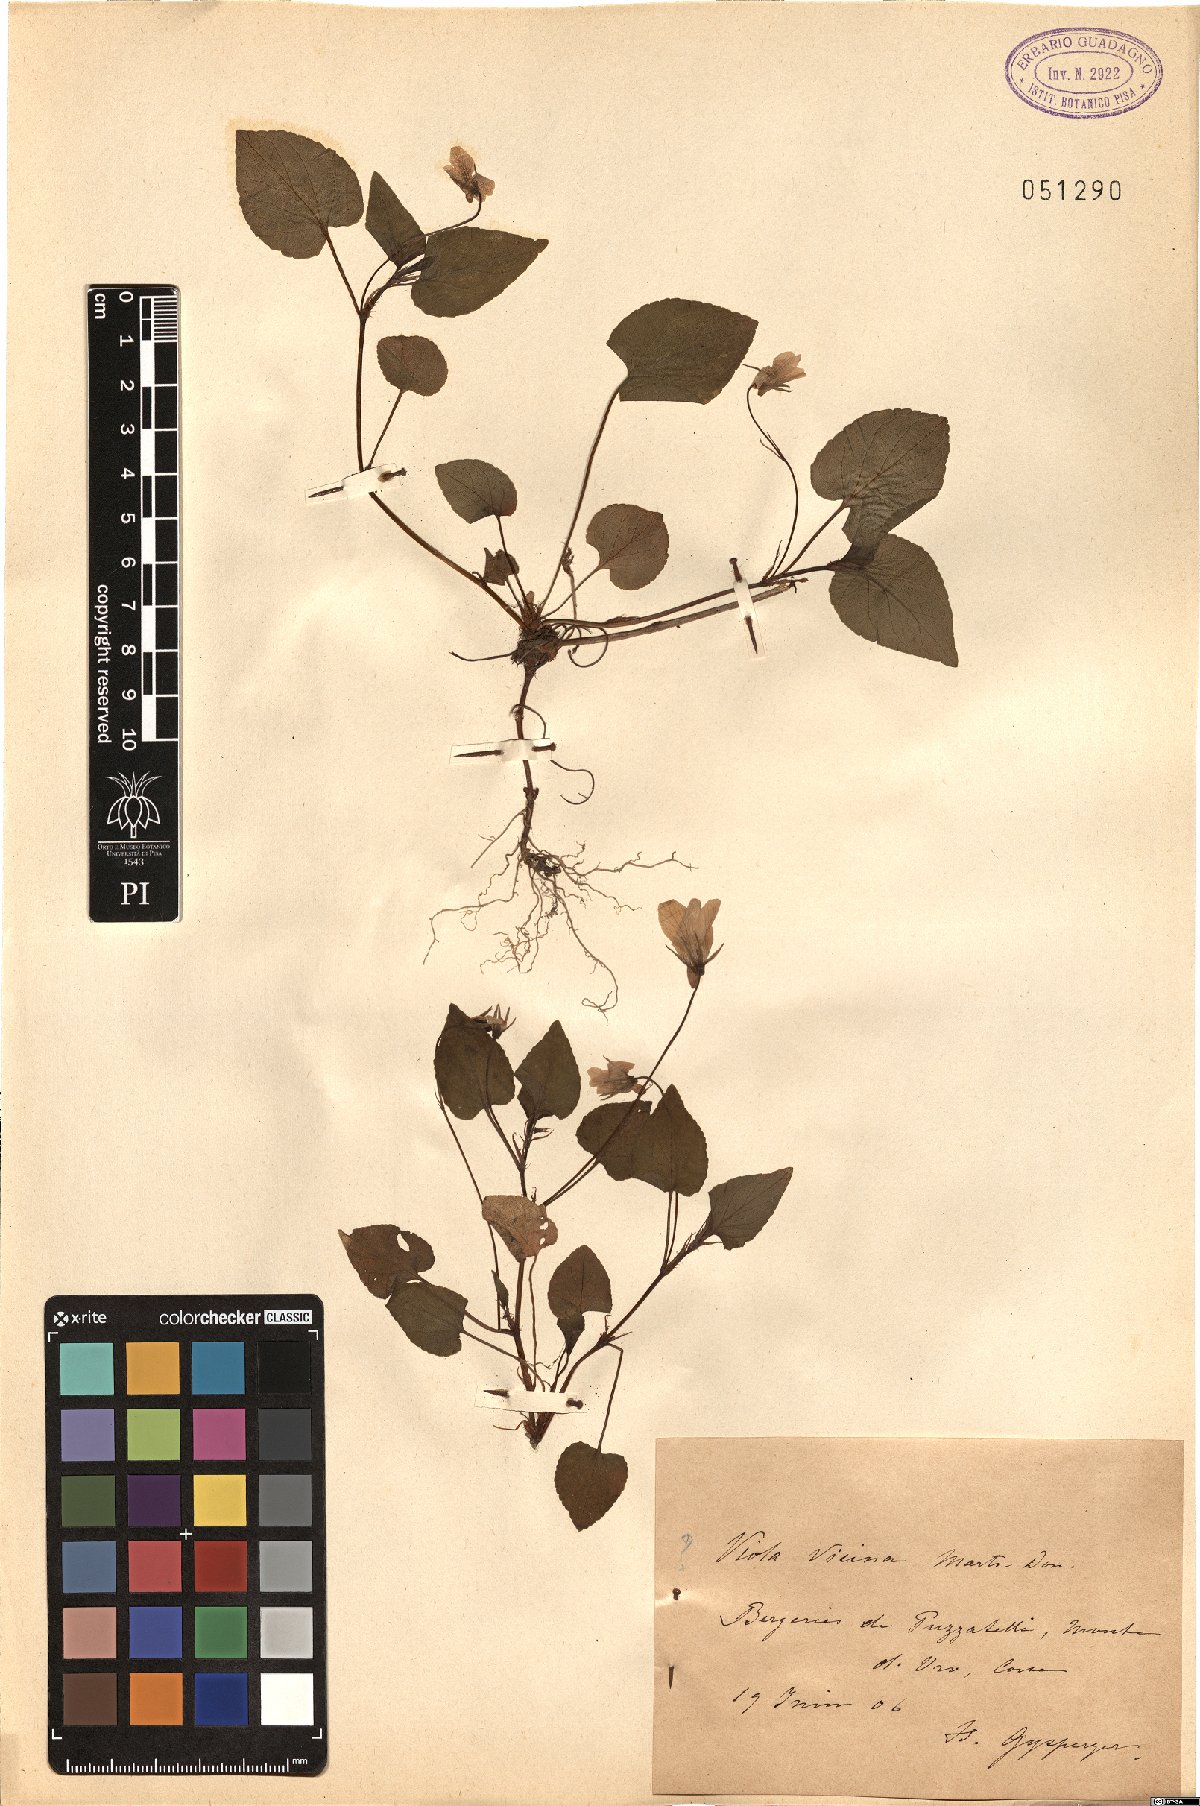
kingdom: Plantae
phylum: Tracheophyta
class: Magnoliopsida
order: Malpighiales
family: Violaceae
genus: Viola
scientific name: Viola reichenbachiana
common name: Early dog-violet
